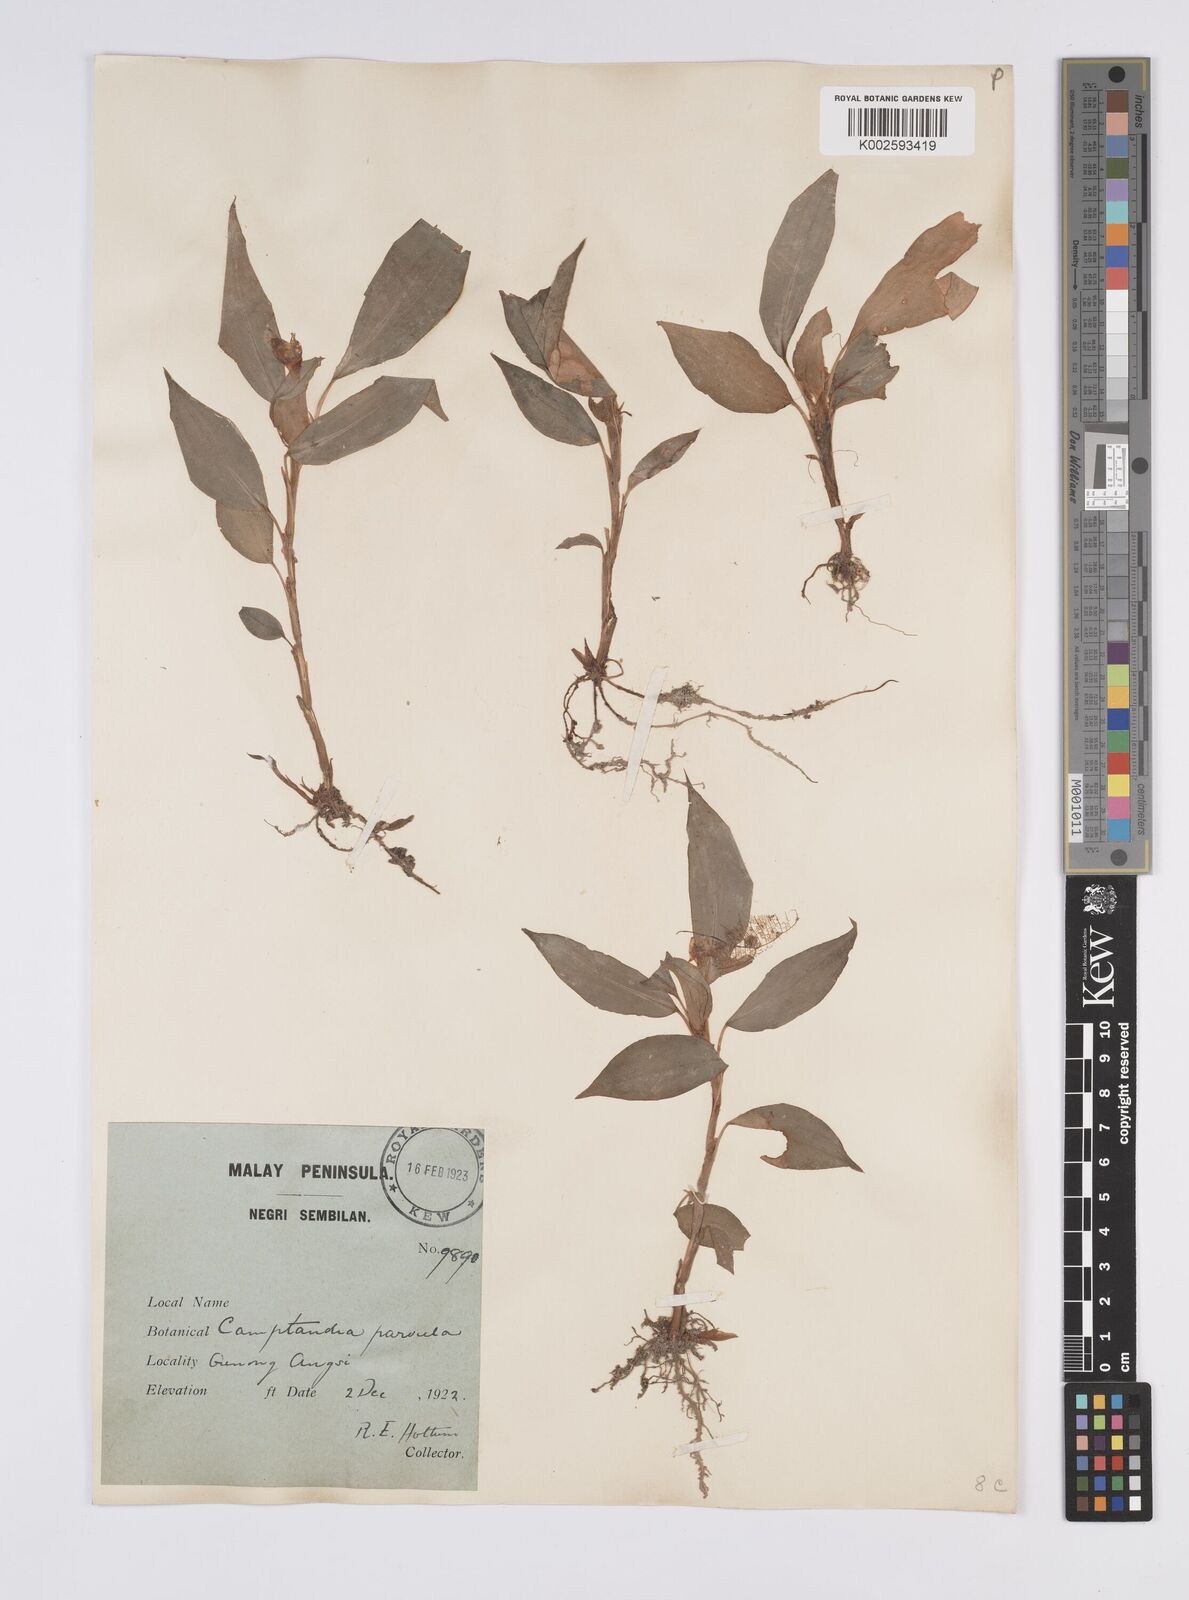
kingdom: Plantae
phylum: Tracheophyta
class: Liliopsida
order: Zingiberales
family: Zingiberaceae
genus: Camptandra
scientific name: Camptandra parvula
